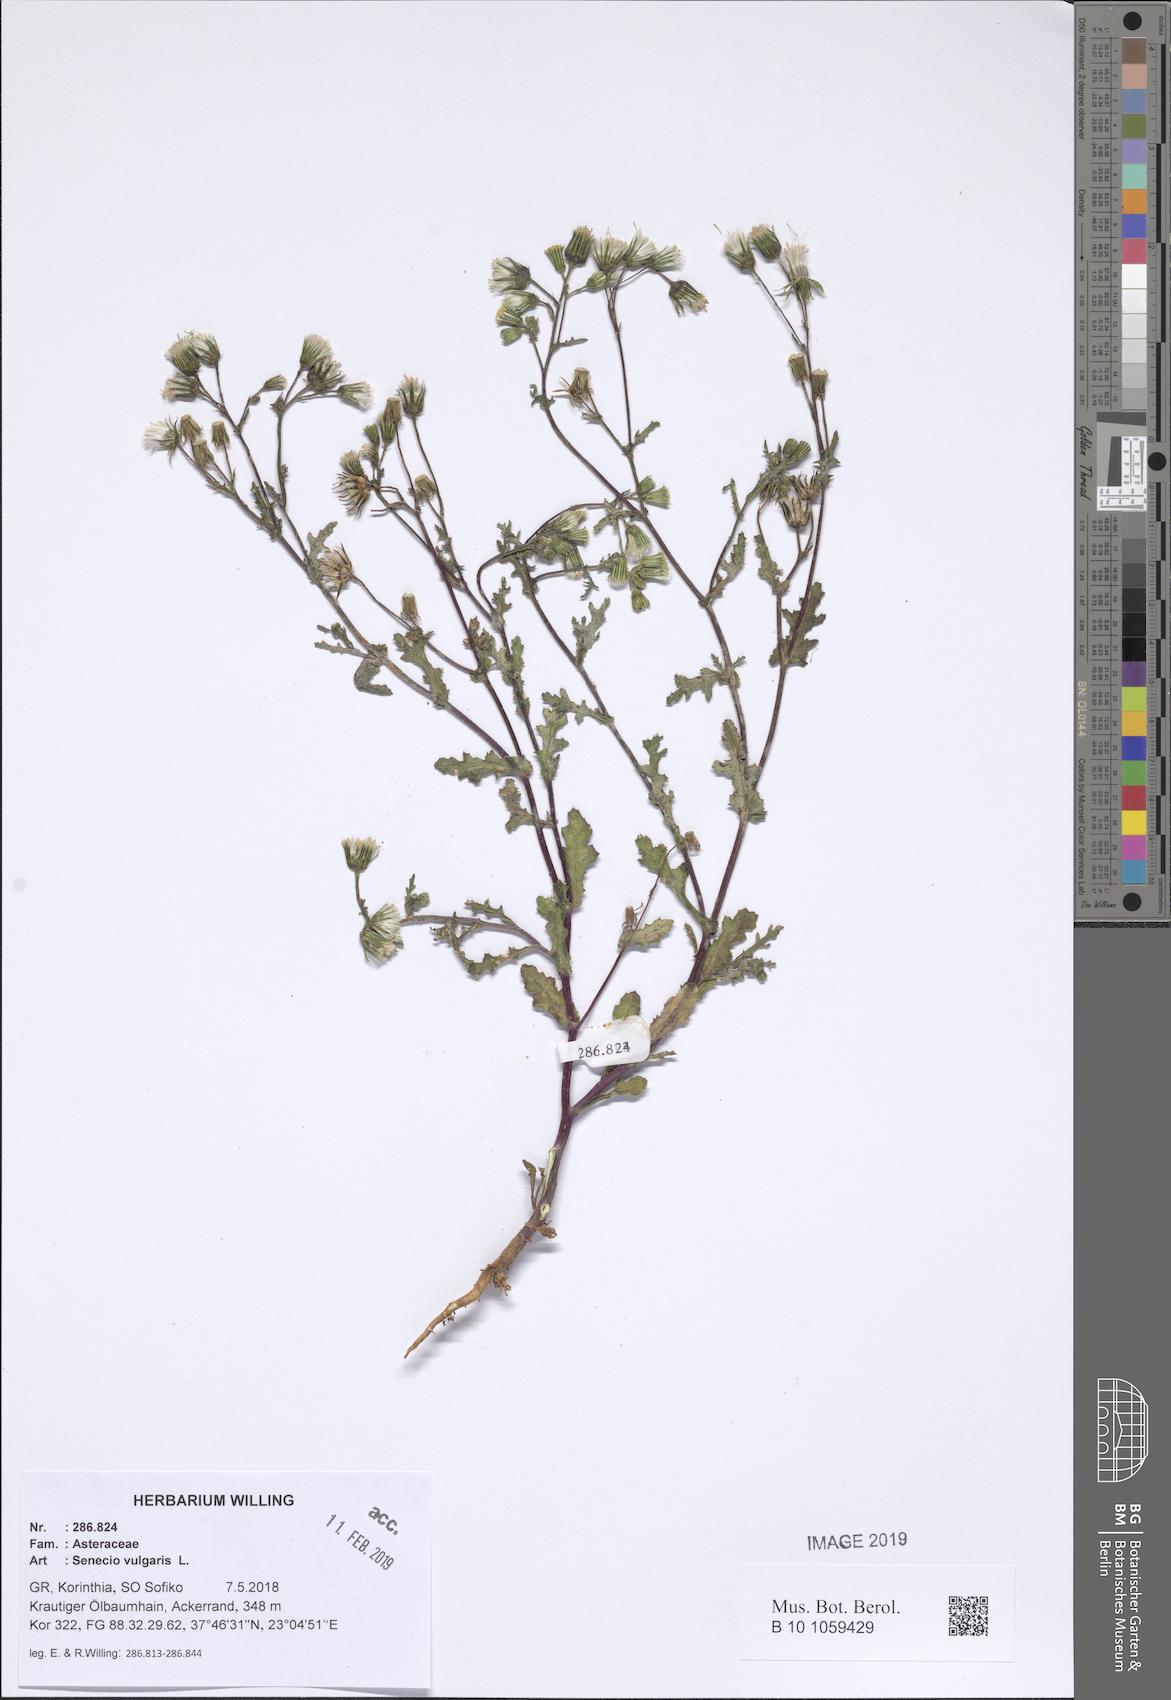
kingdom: Plantae
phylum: Tracheophyta
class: Magnoliopsida
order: Asterales
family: Asteraceae
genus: Senecio
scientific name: Senecio vulgaris
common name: Old-man-in-the-spring
